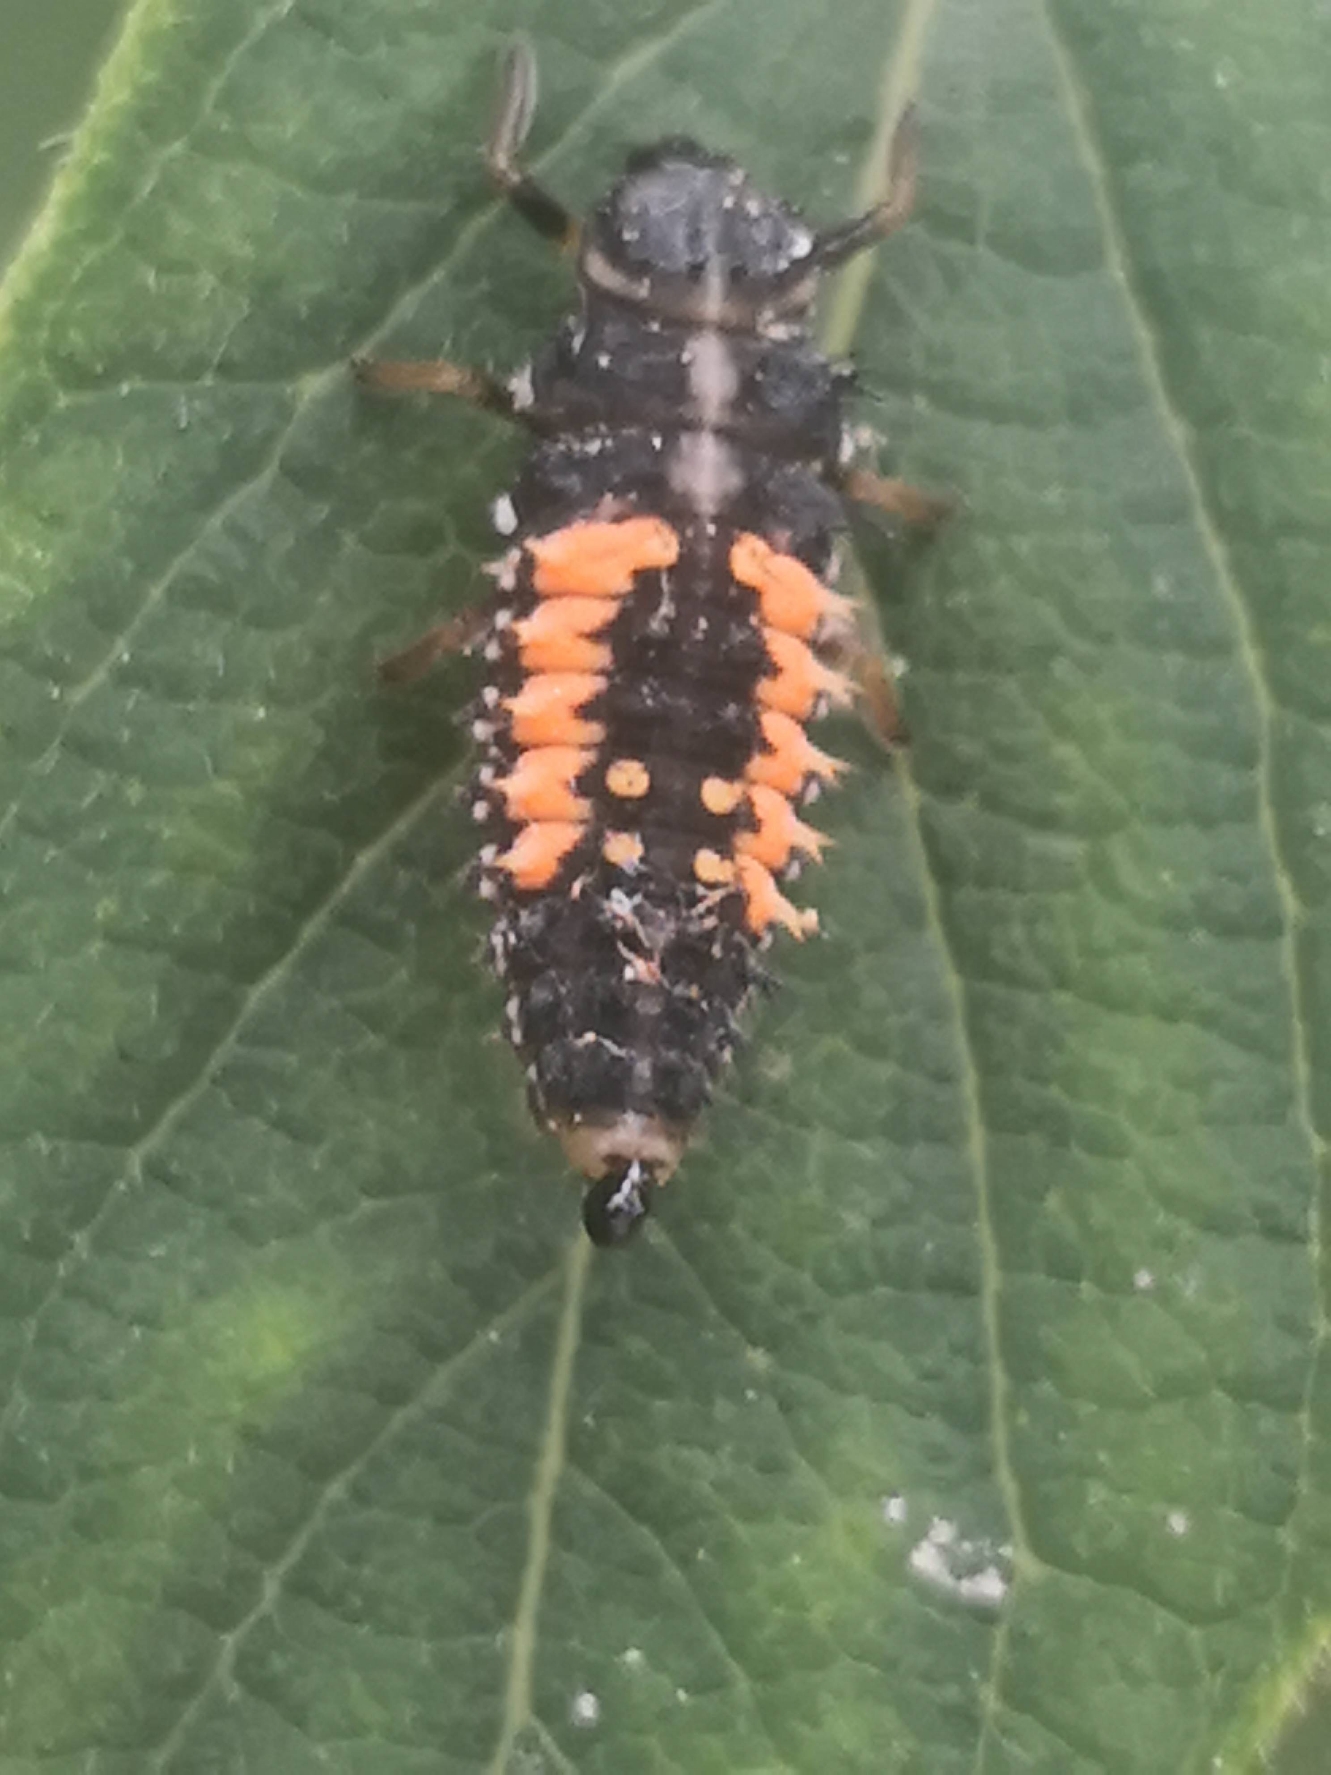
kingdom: Animalia
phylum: Arthropoda
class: Insecta
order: Coleoptera
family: Coccinellidae
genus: Harmonia
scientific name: Harmonia axyridis
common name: Harlekinmariehøne
